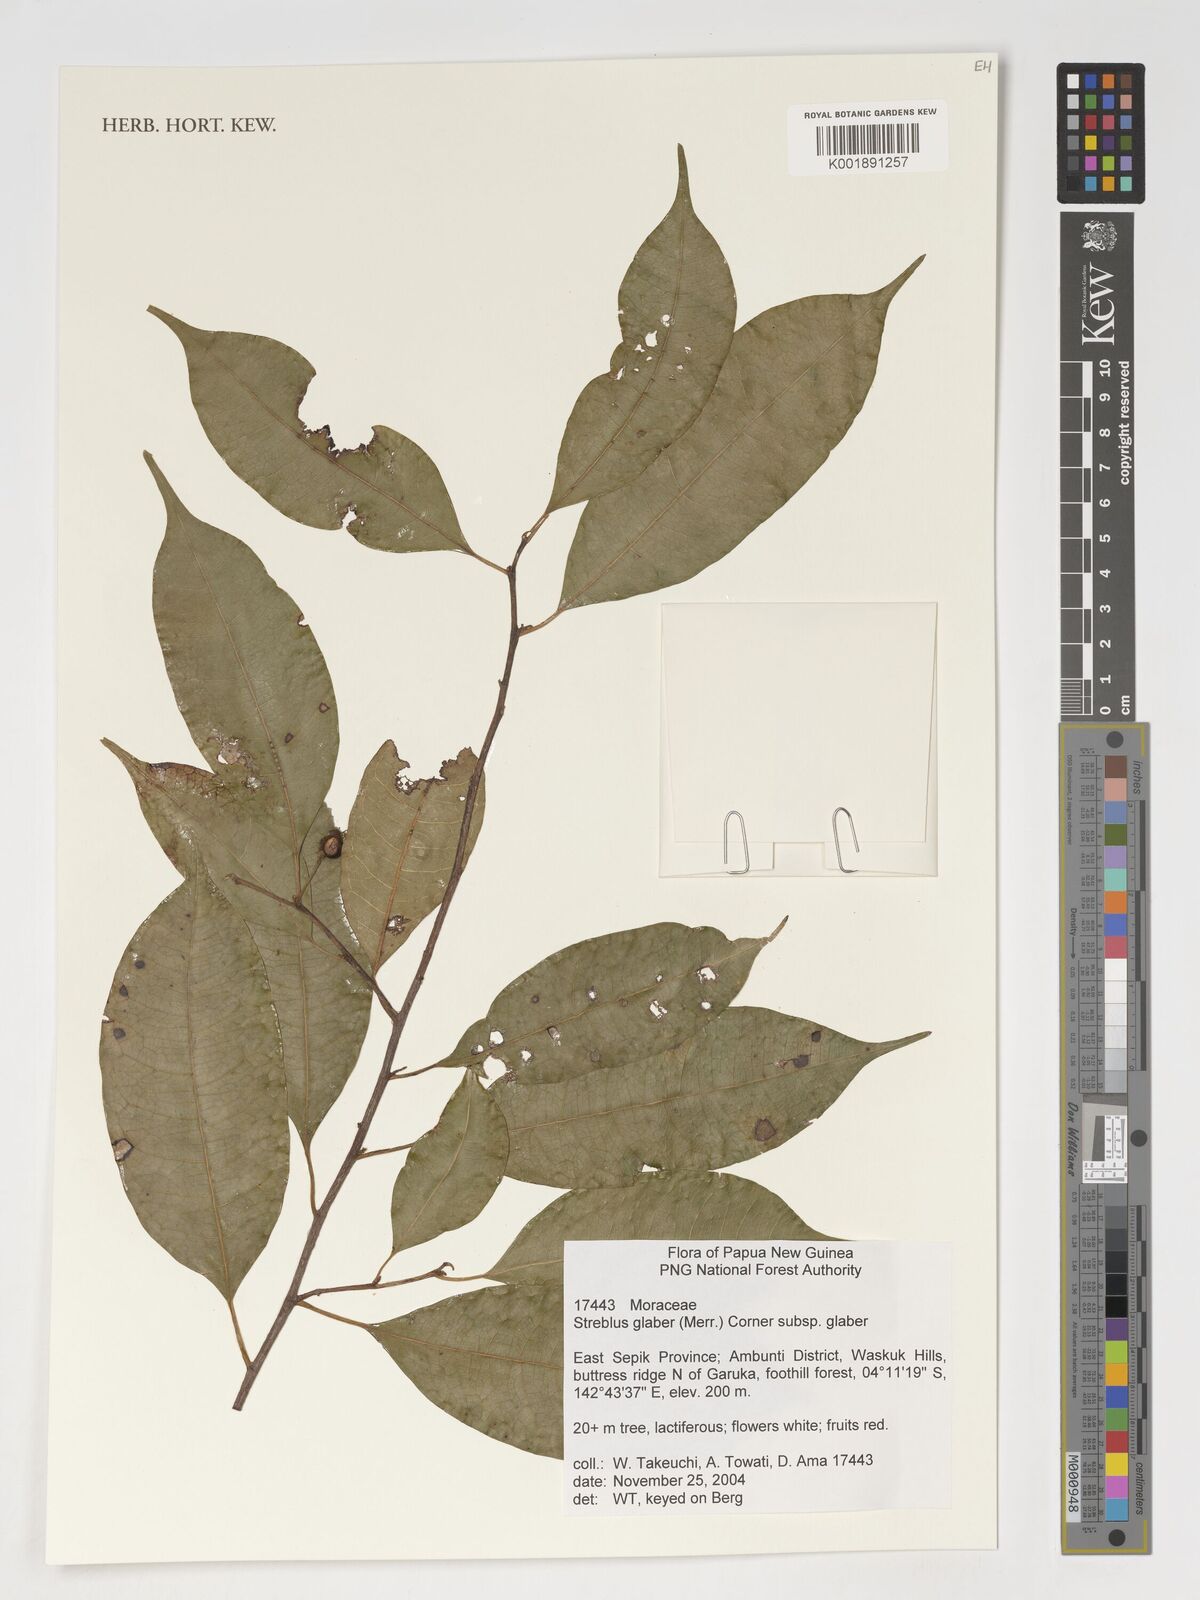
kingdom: Plantae
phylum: Tracheophyta
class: Magnoliopsida
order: Rosales
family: Moraceae
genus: Paratrophis
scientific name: Paratrophis glabra
